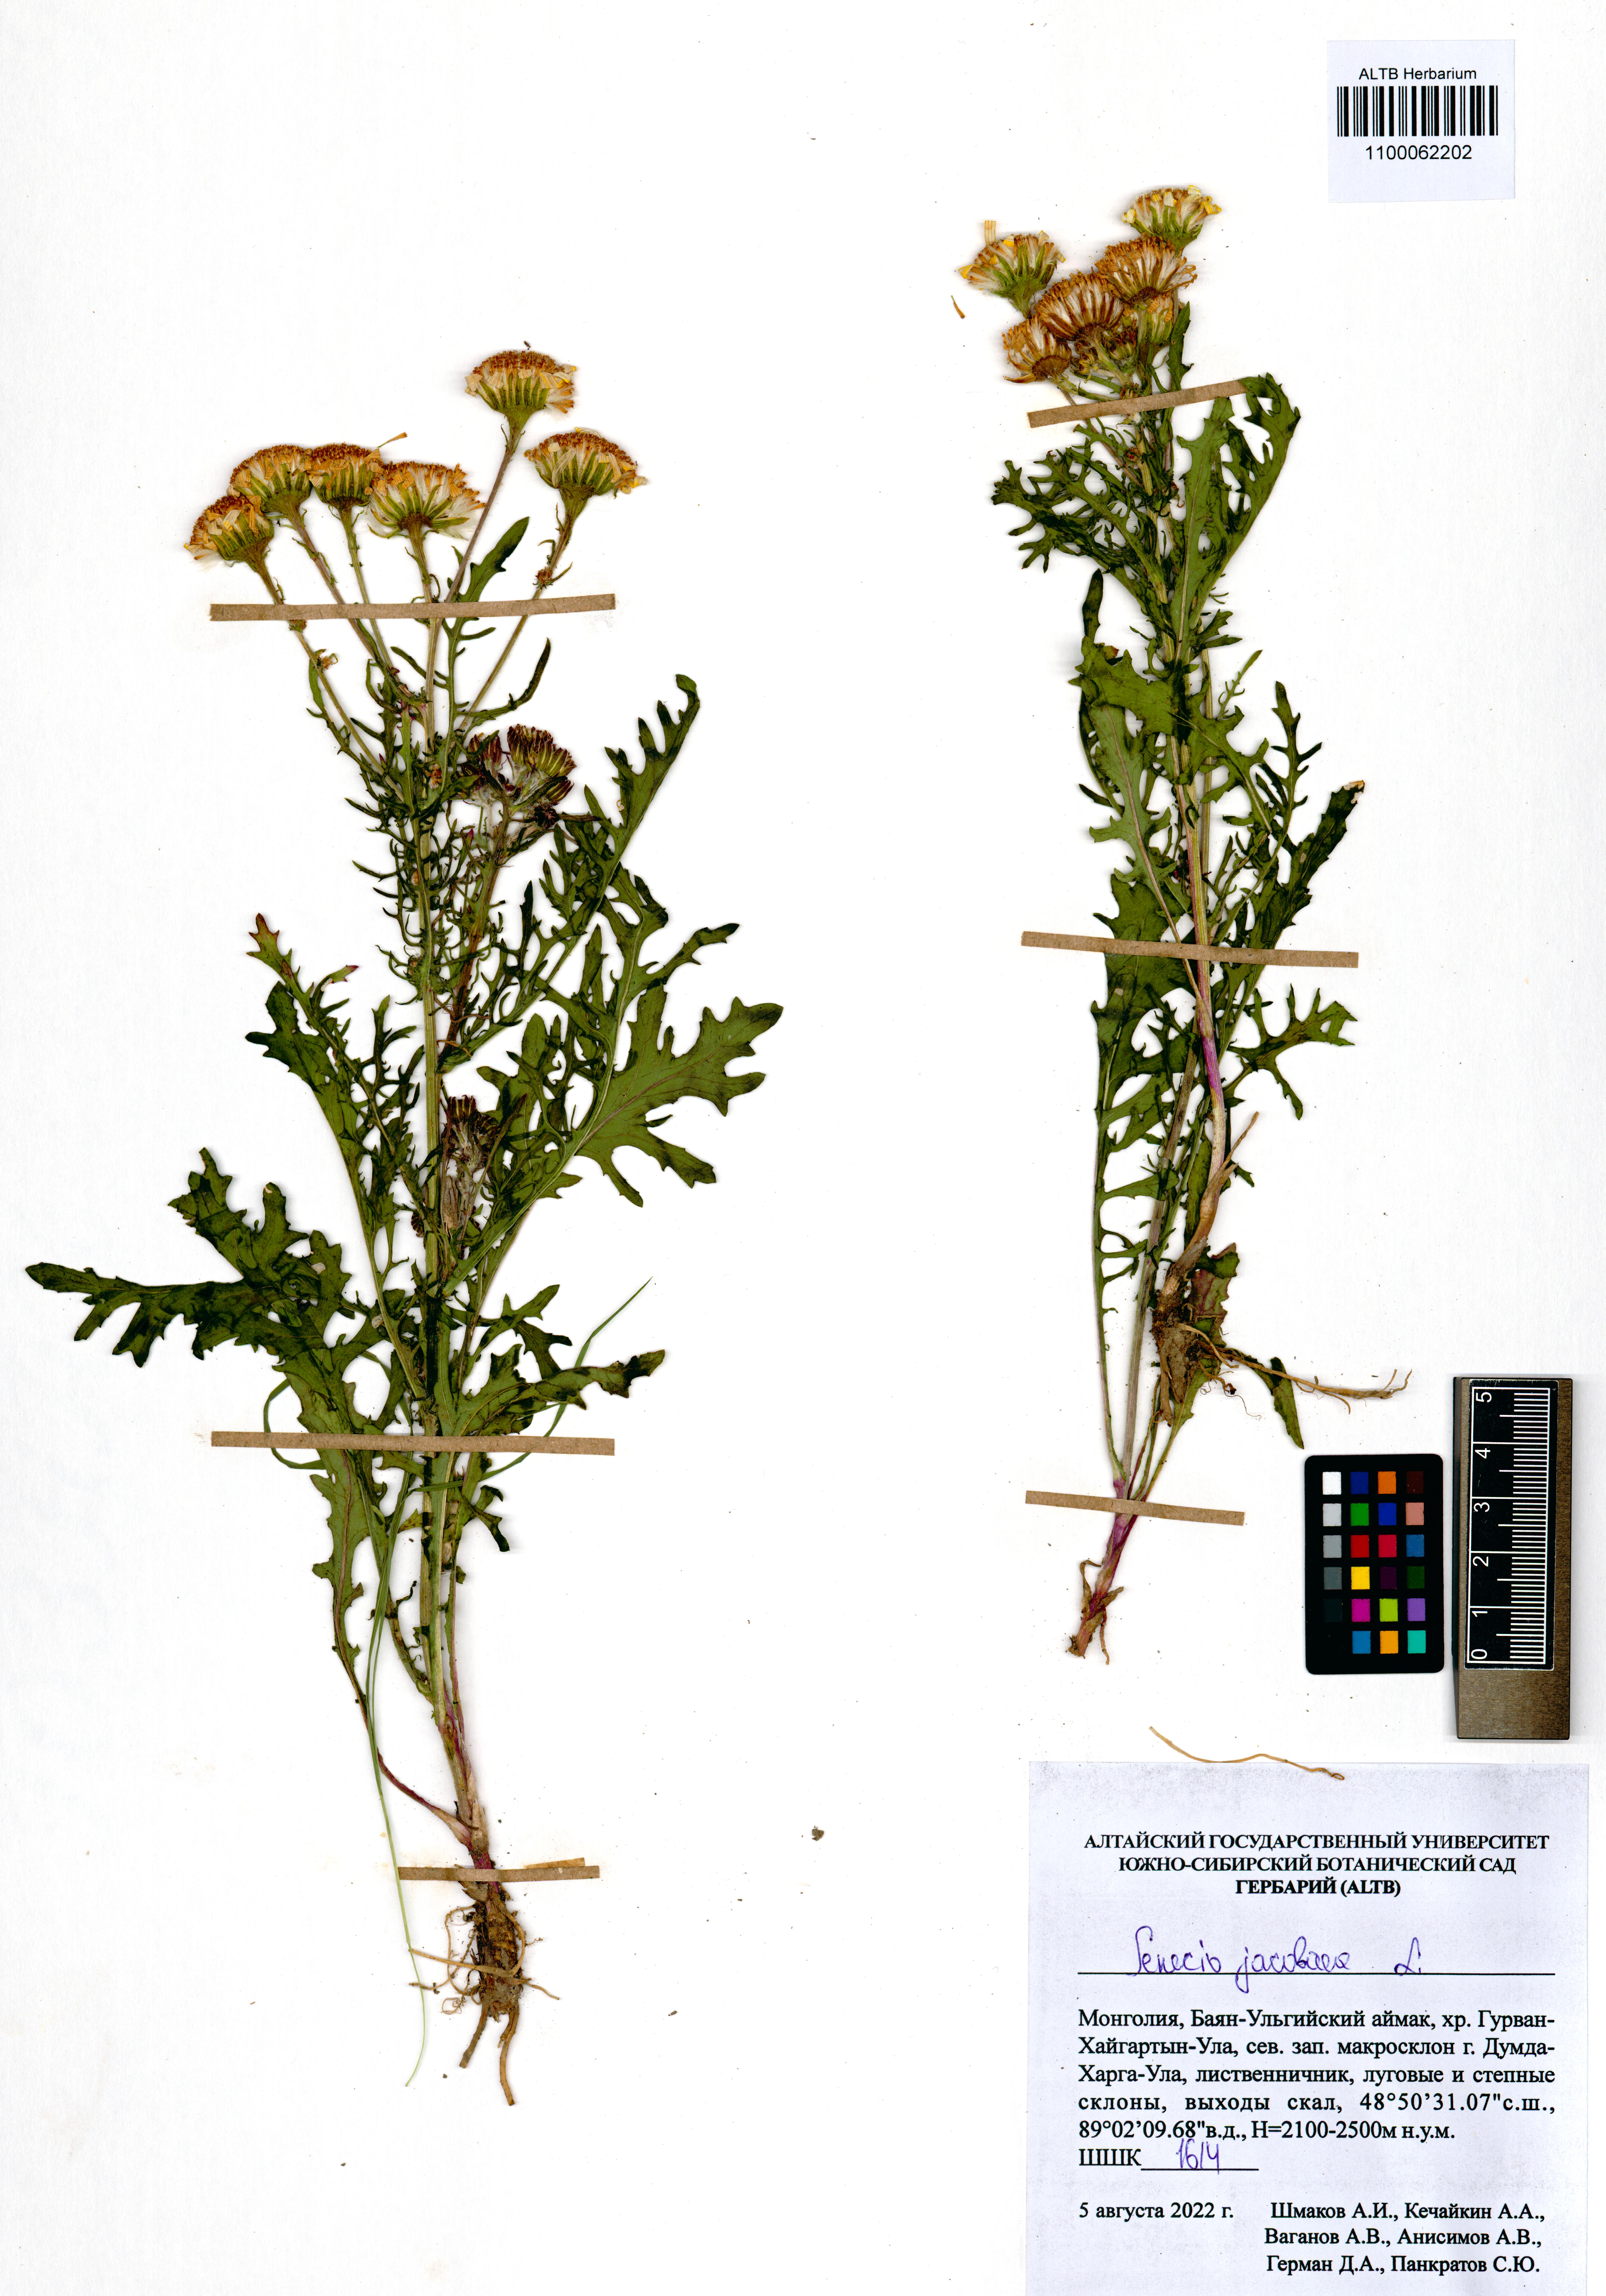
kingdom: Plantae
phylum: Tracheophyta
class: Magnoliopsida
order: Asterales
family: Asteraceae
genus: Jacobaea
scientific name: Jacobaea vulgaris
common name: Stinking willie
